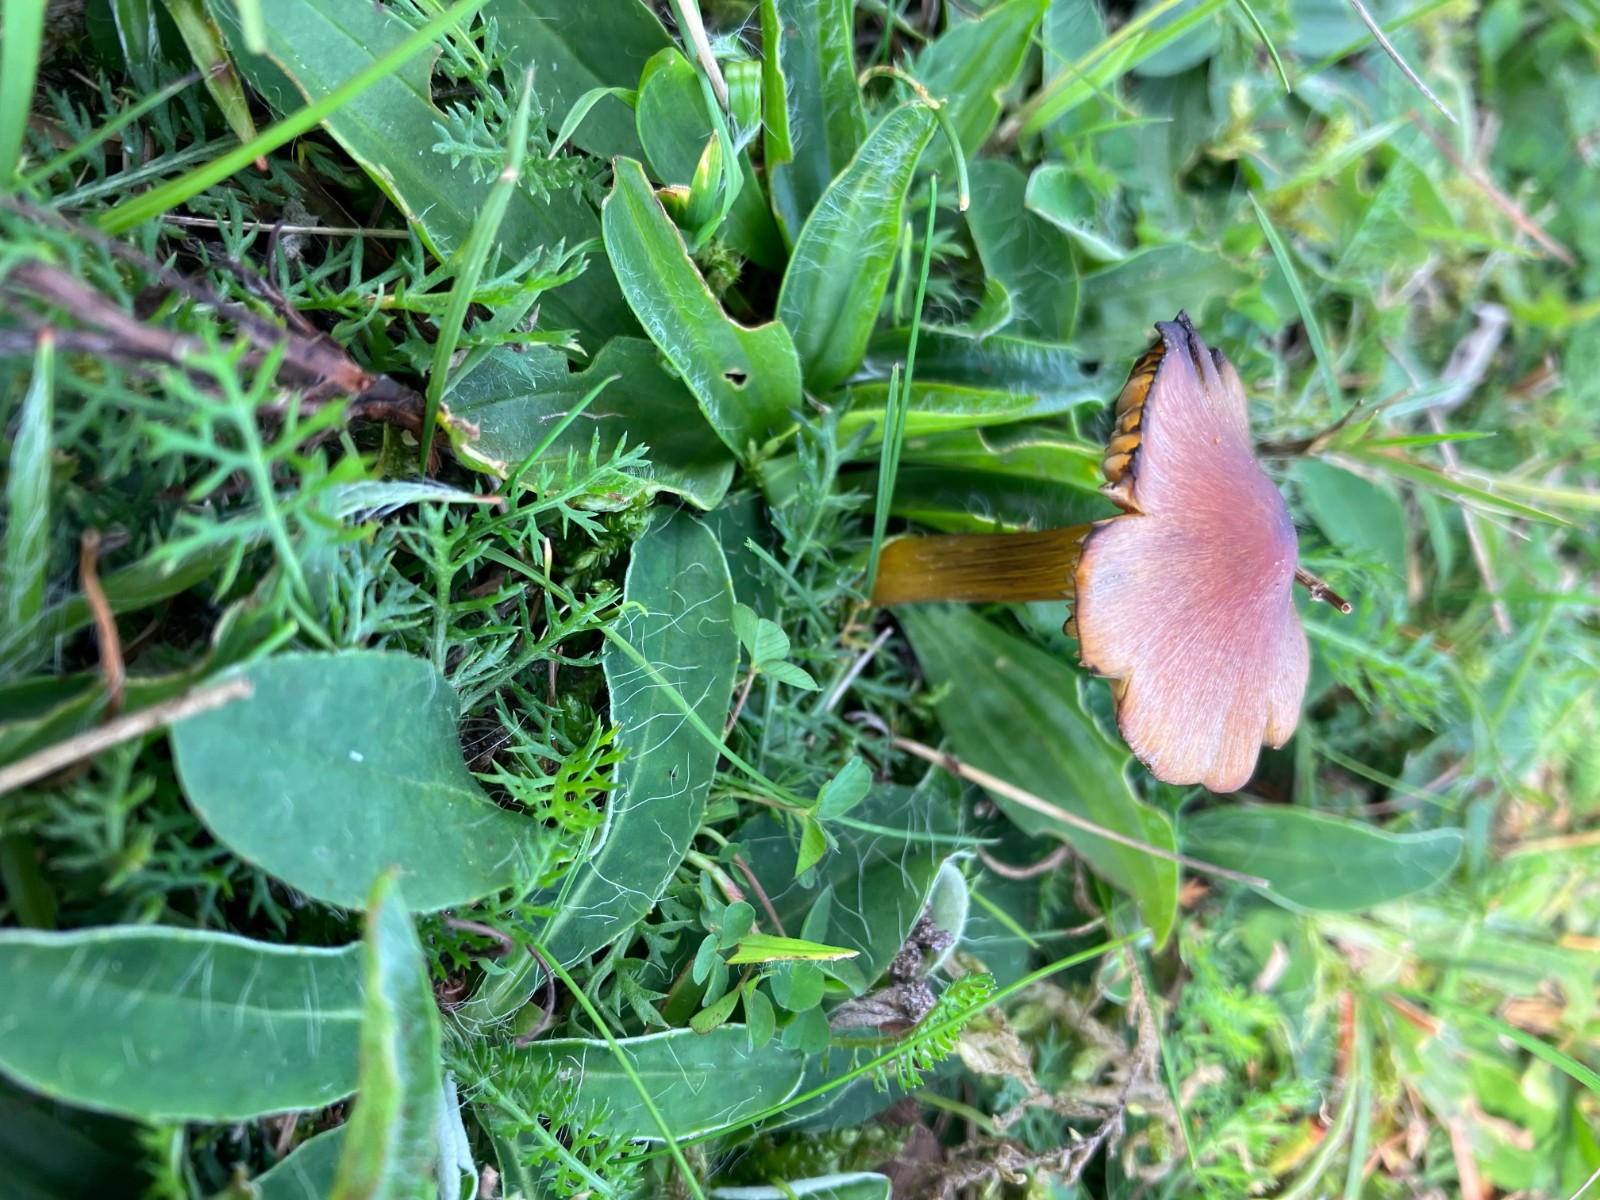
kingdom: Fungi
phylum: Basidiomycota
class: Agaricomycetes
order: Agaricales
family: Hygrophoraceae
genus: Hygrocybe
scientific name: Hygrocybe conica
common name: kegle-vokshat
